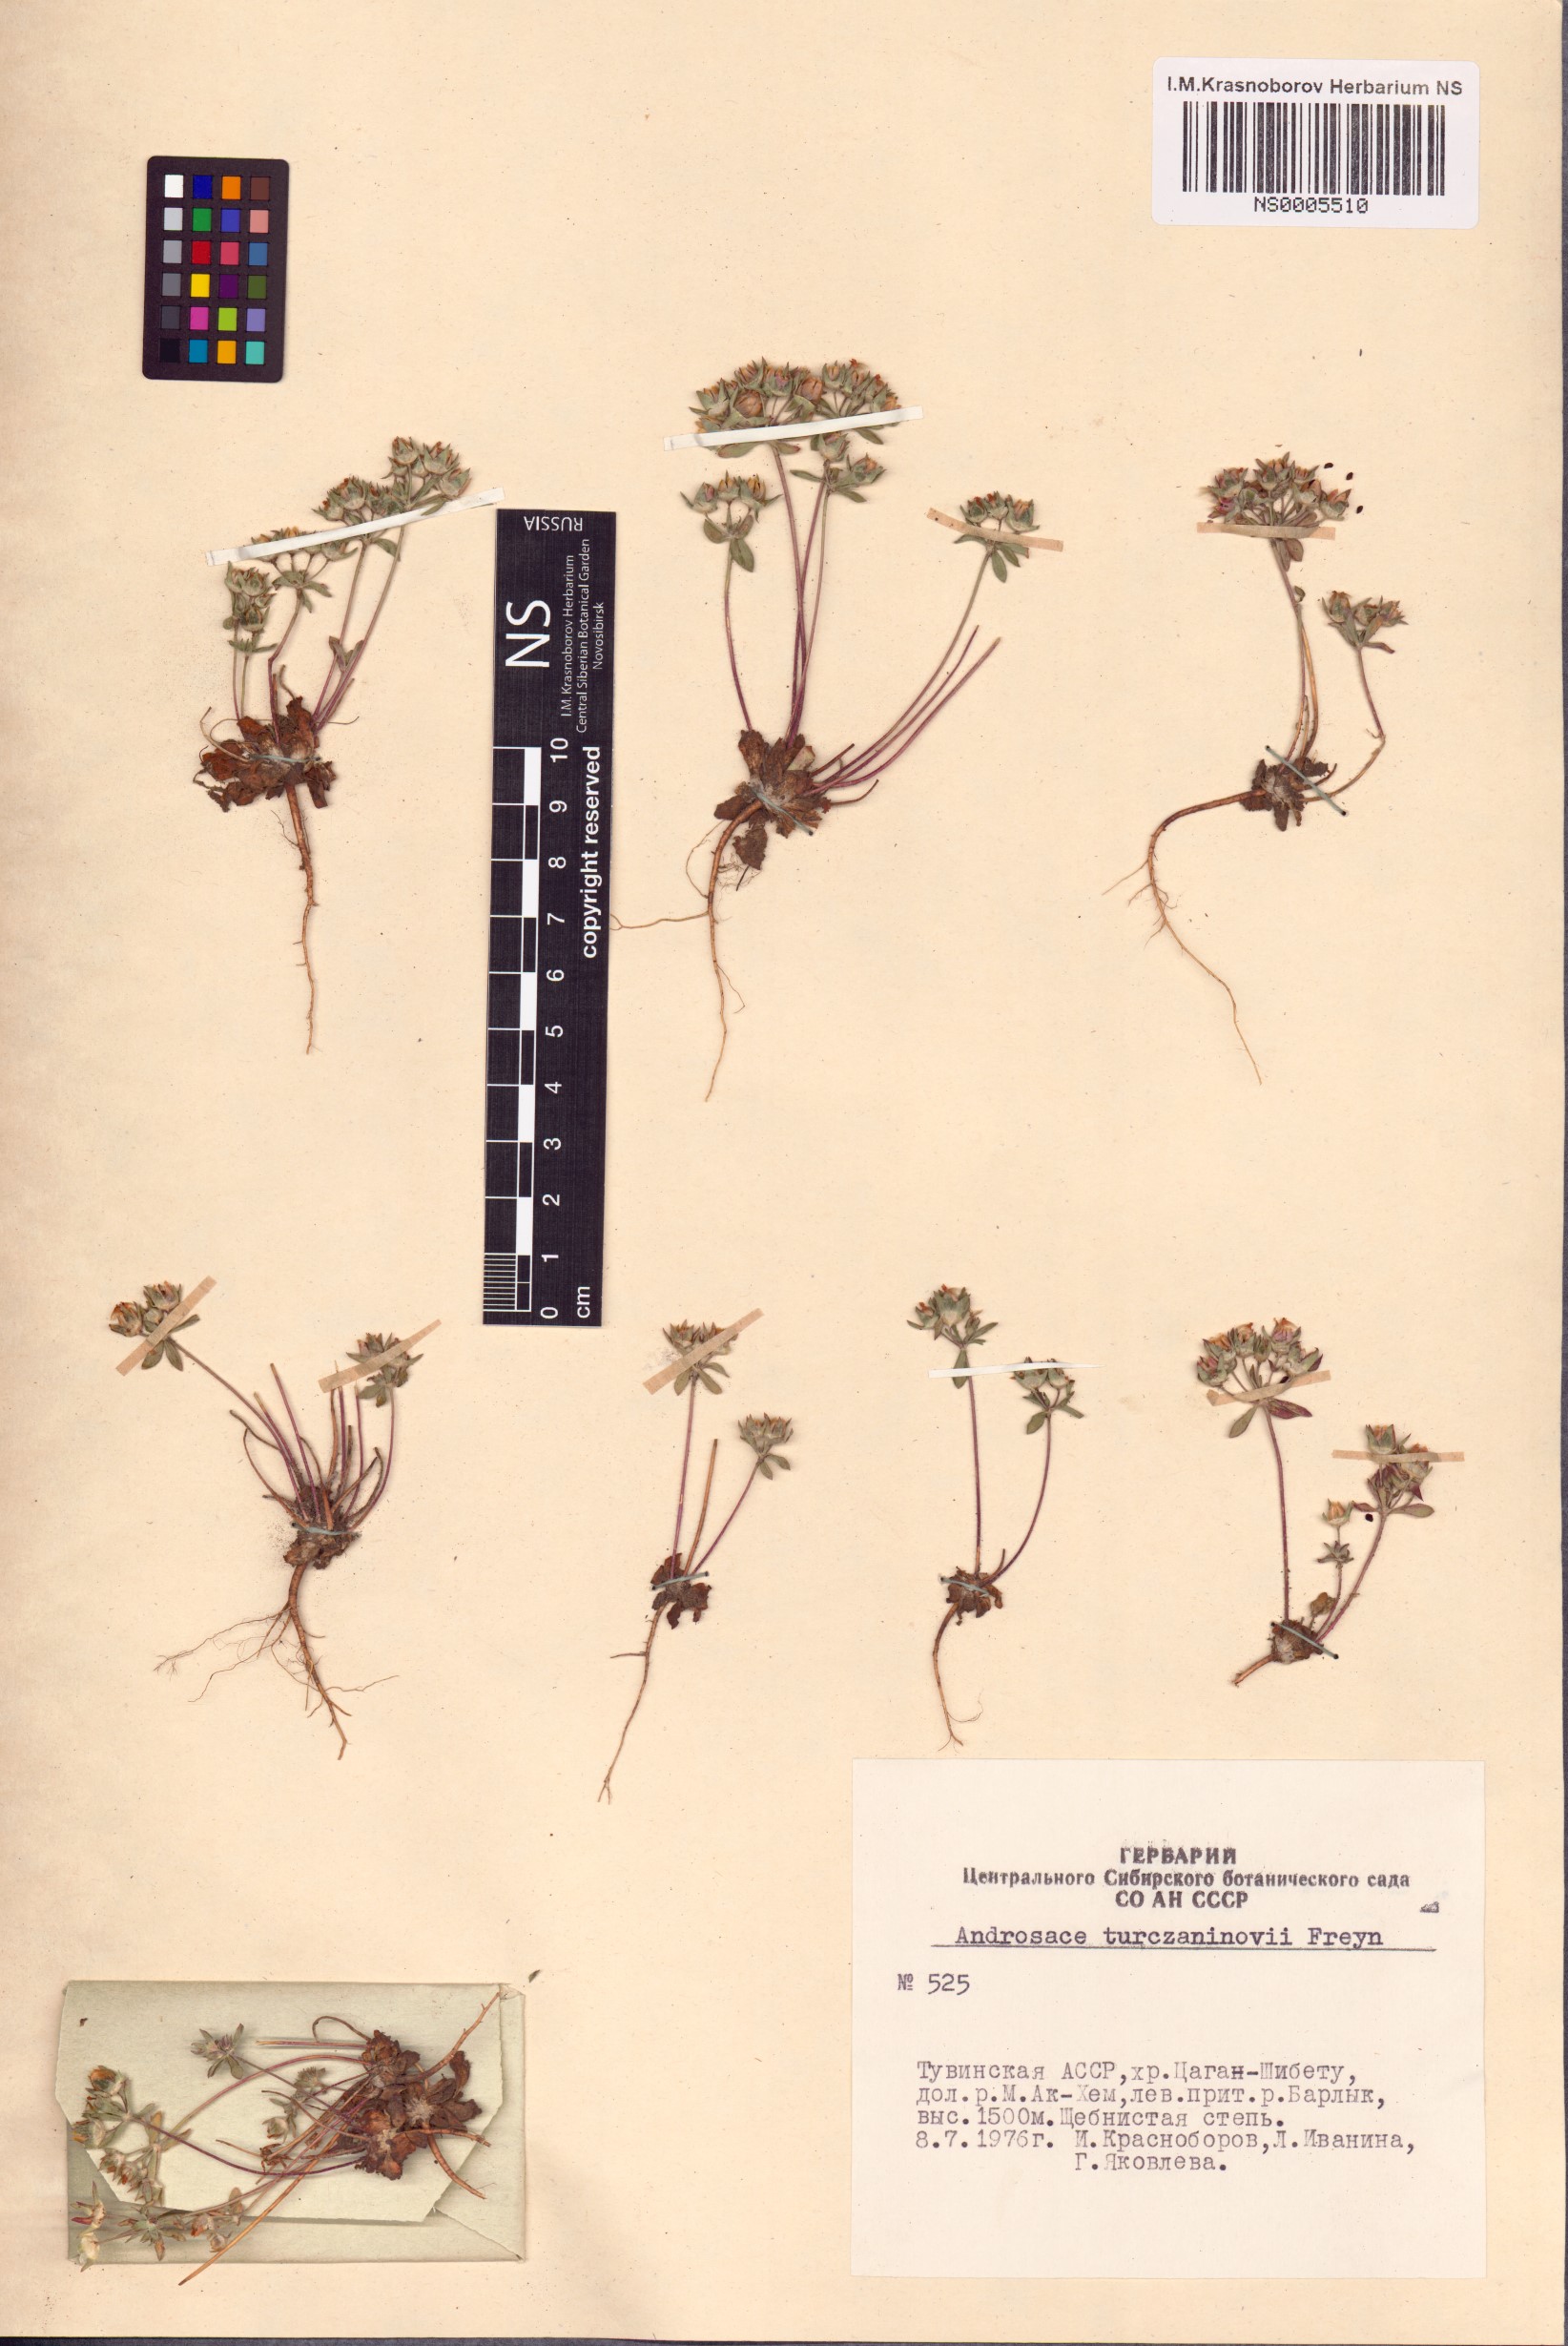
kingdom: Plantae
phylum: Tracheophyta
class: Magnoliopsida
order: Ericales
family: Primulaceae
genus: Androsace
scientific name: Androsace maxima
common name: Annual androsace
